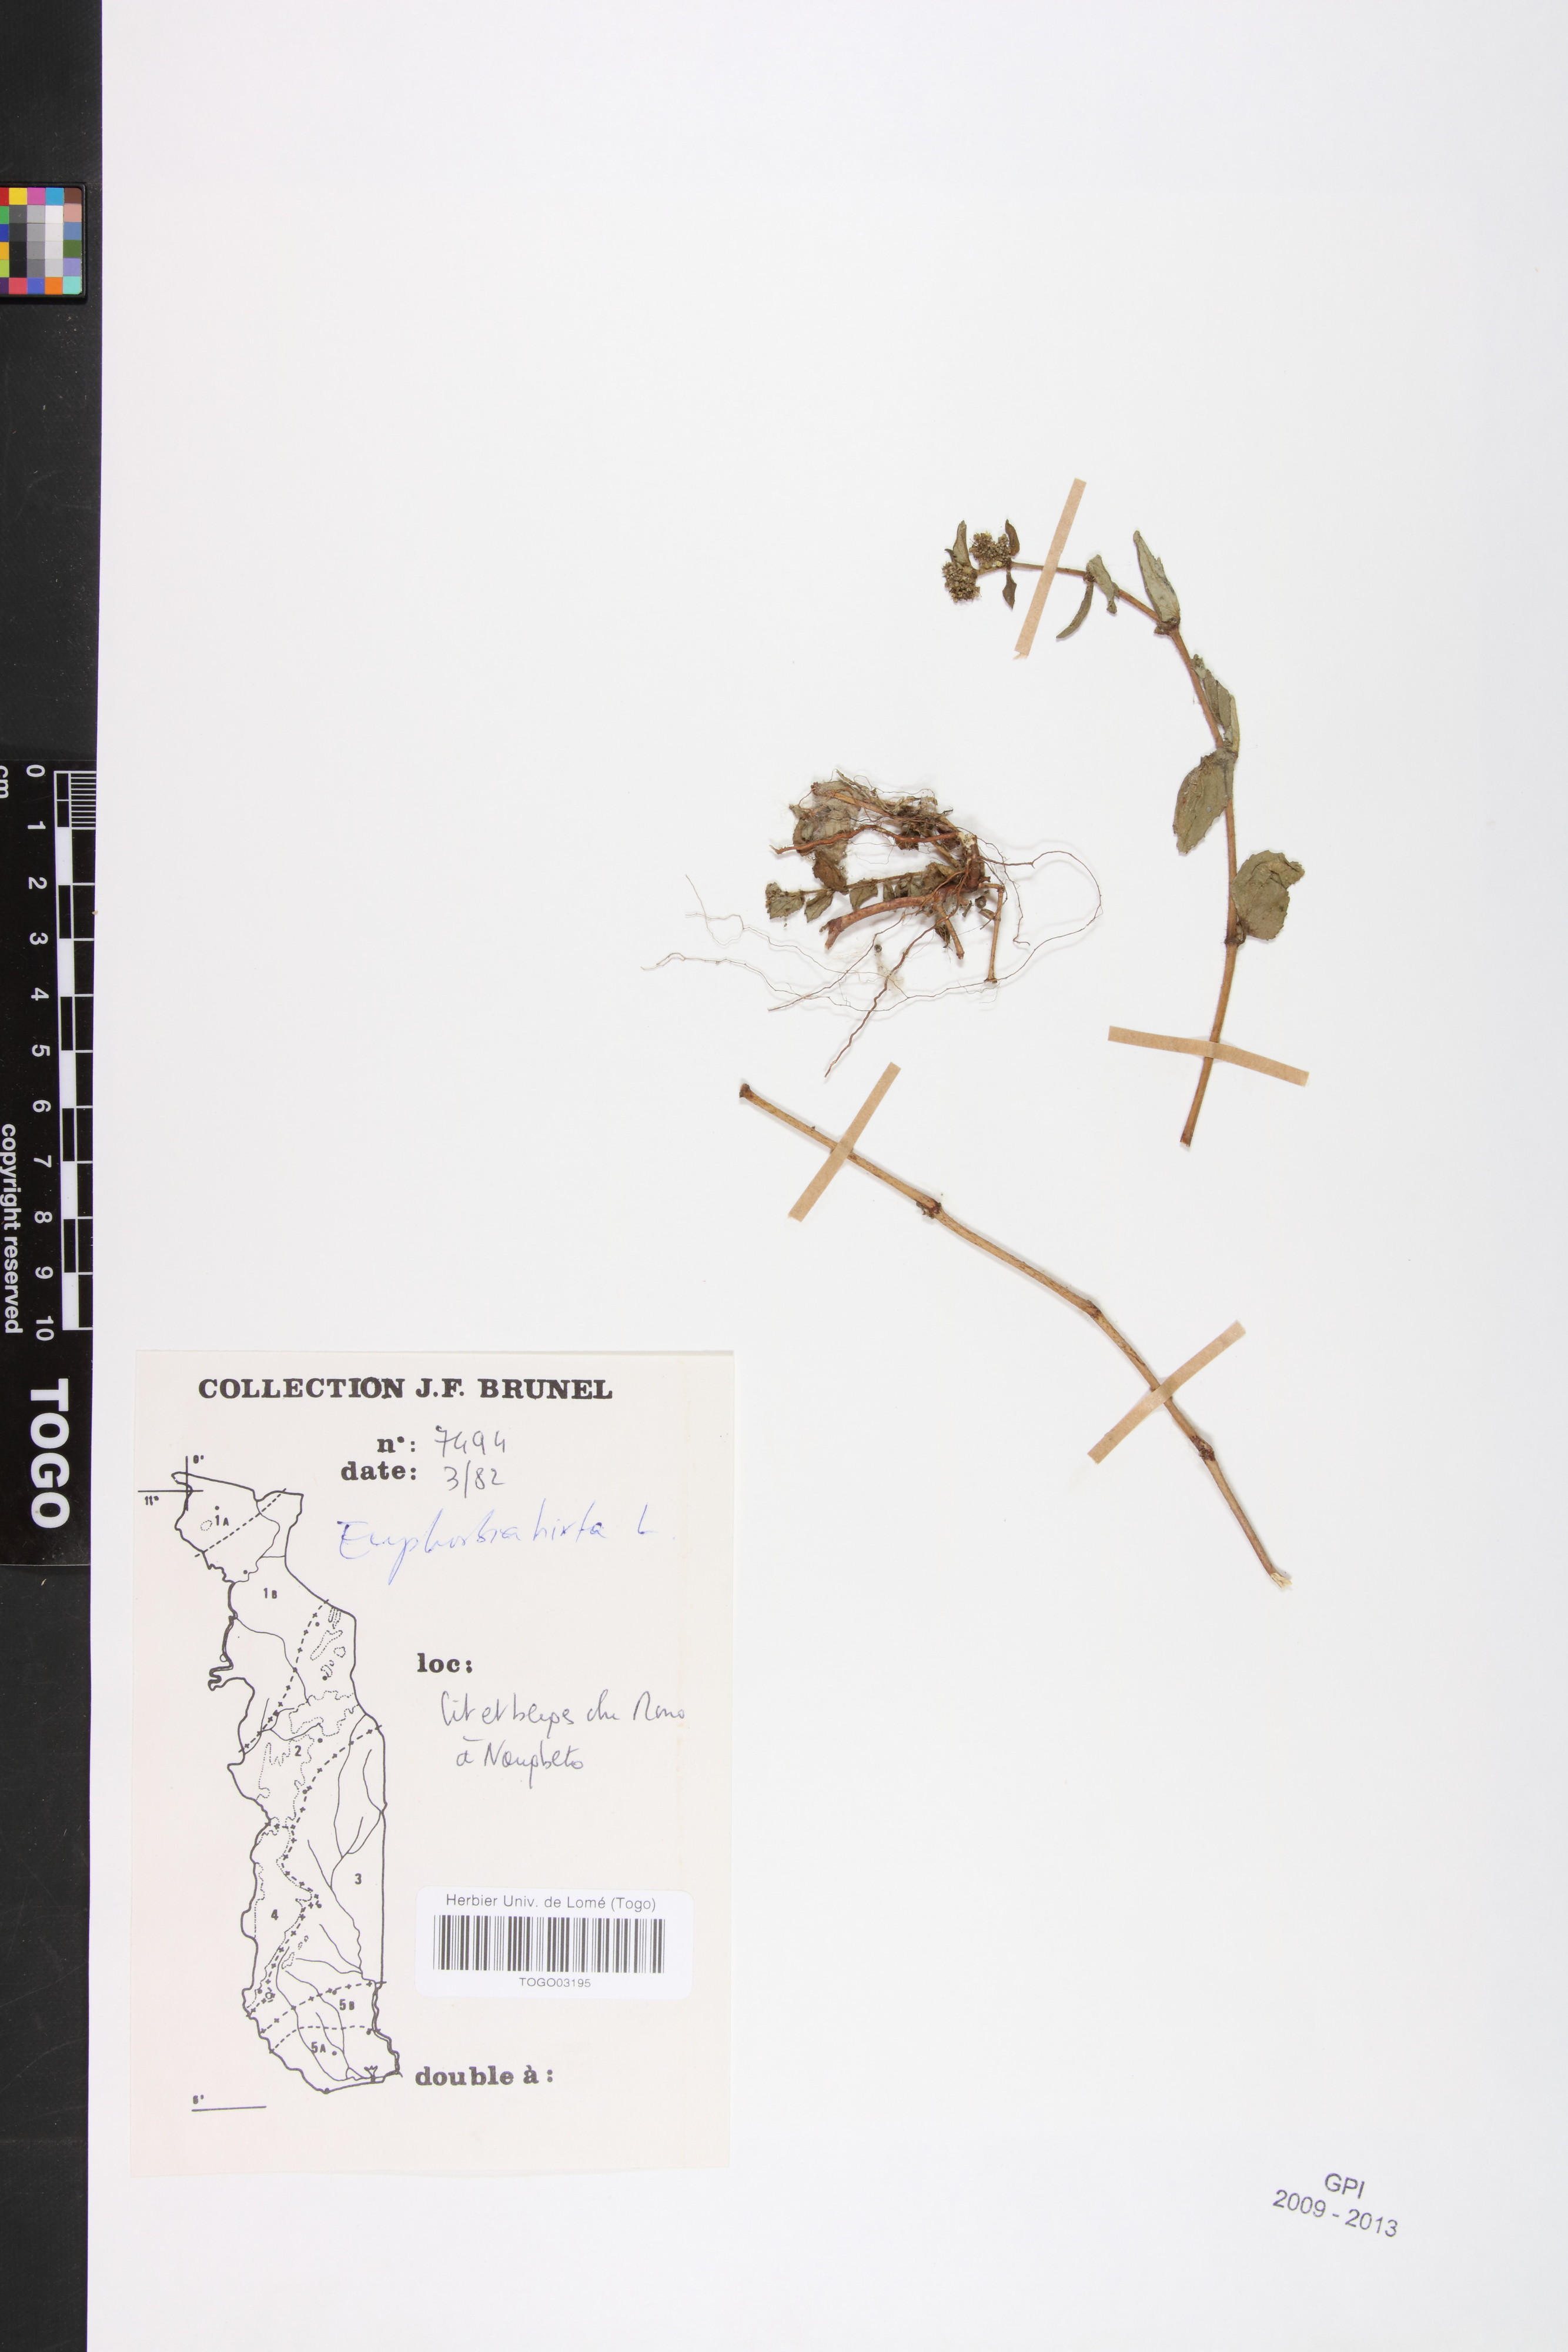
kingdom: Plantae
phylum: Tracheophyta
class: Magnoliopsida
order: Malpighiales
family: Euphorbiaceae
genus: Euphorbia
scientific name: Euphorbia hirta
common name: Pillpod sandmat
